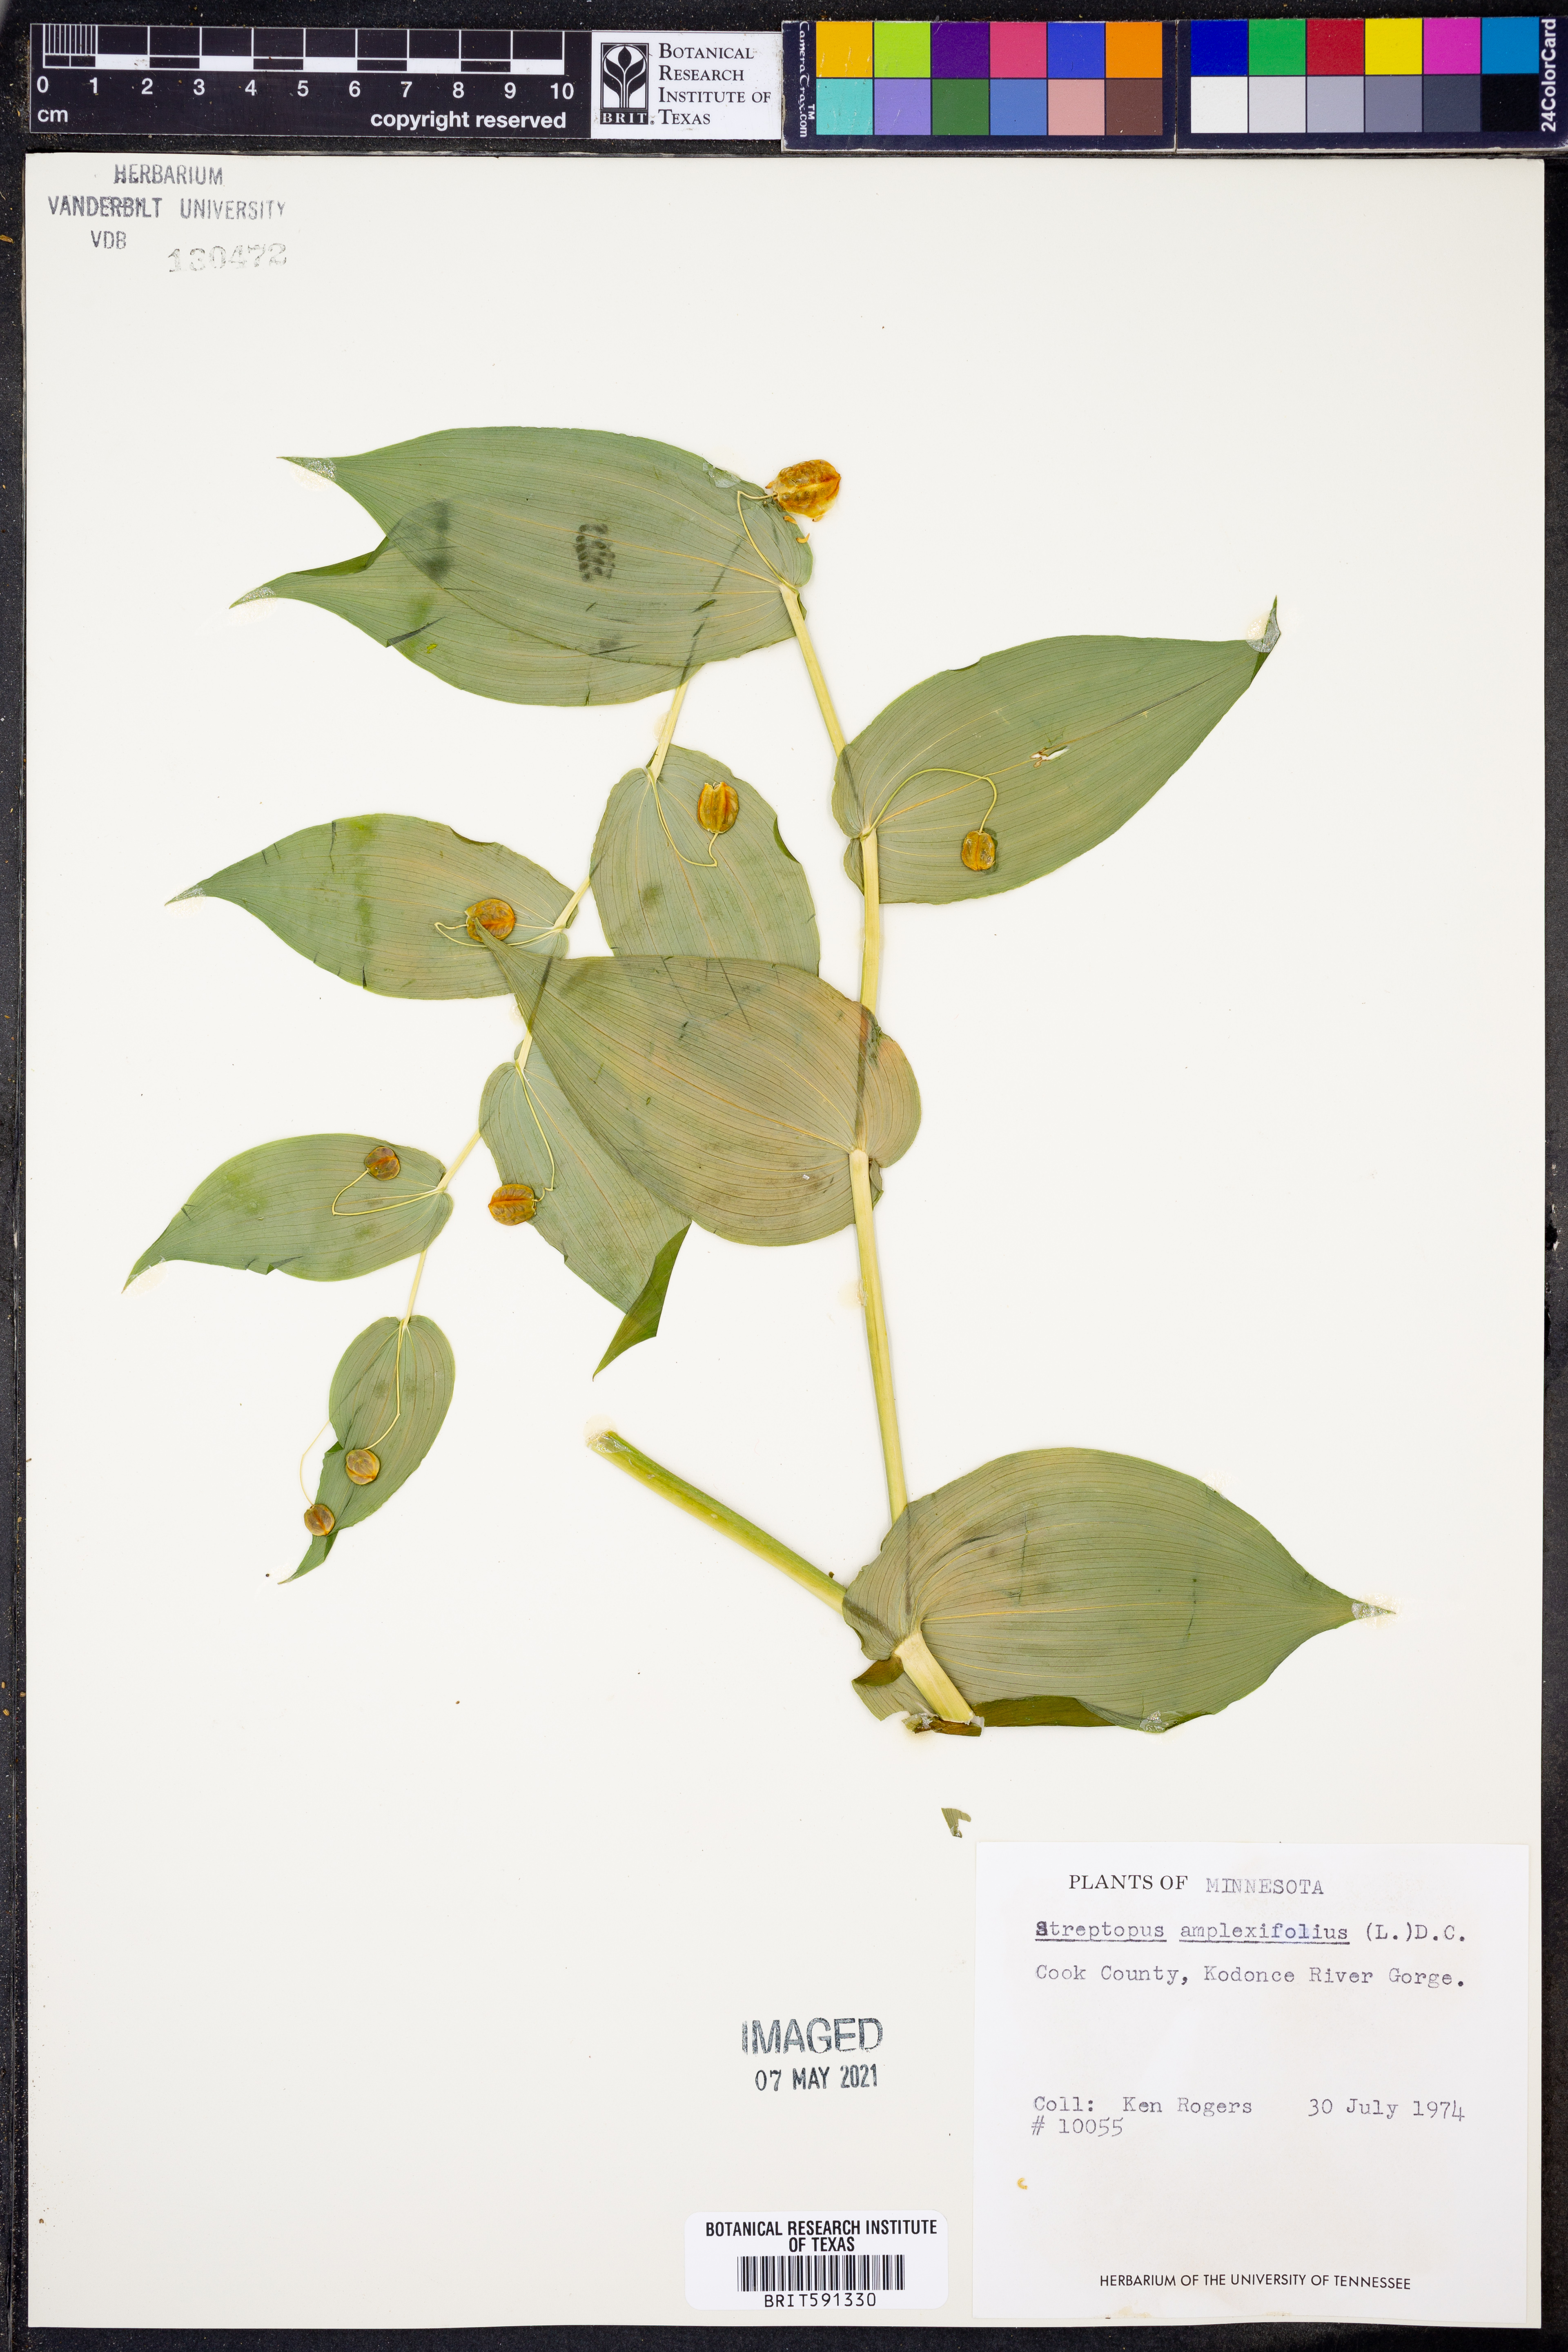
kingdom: Plantae
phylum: Tracheophyta
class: Liliopsida
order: Liliales
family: Liliaceae
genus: Streptopus
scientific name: Streptopus amplexifolius
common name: Clasp twisted stalk
